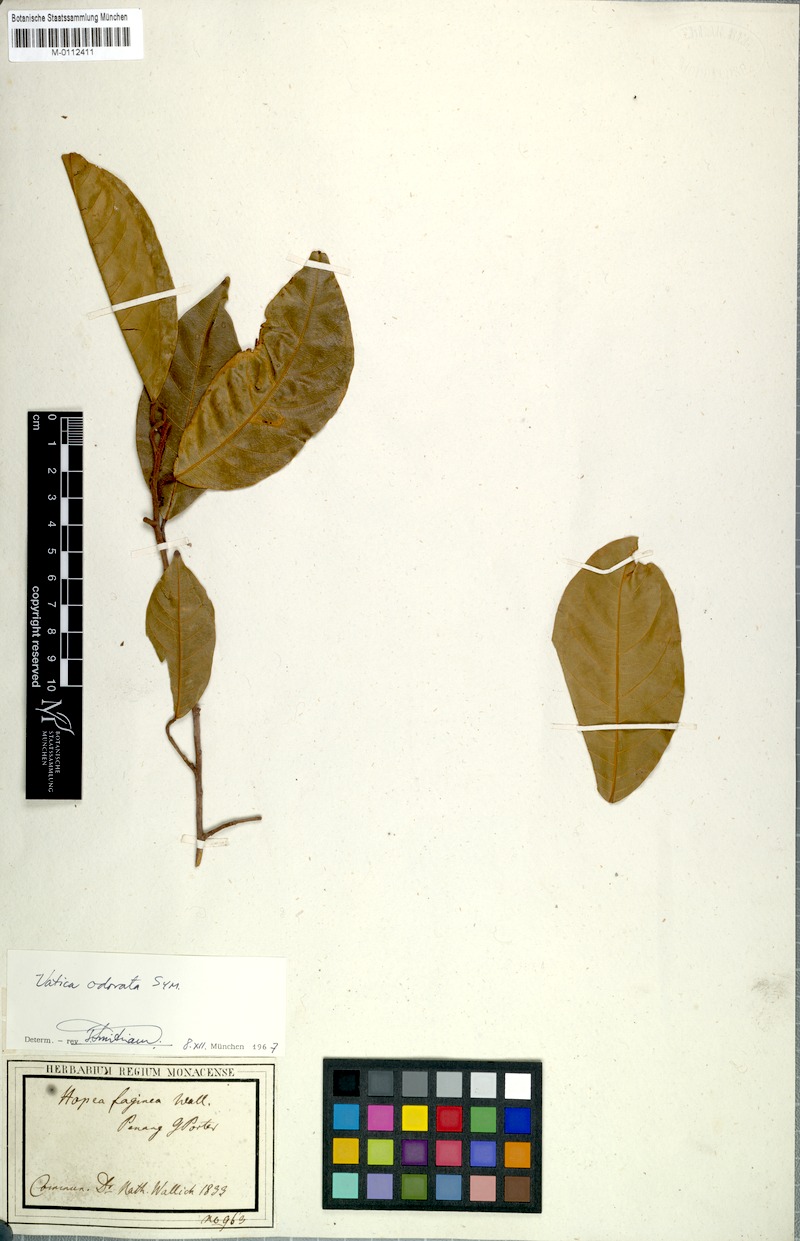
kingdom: Plantae
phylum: Tracheophyta
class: Magnoliopsida
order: Malvales
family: Dipterocarpaceae
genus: Vatica
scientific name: Vatica odorata
